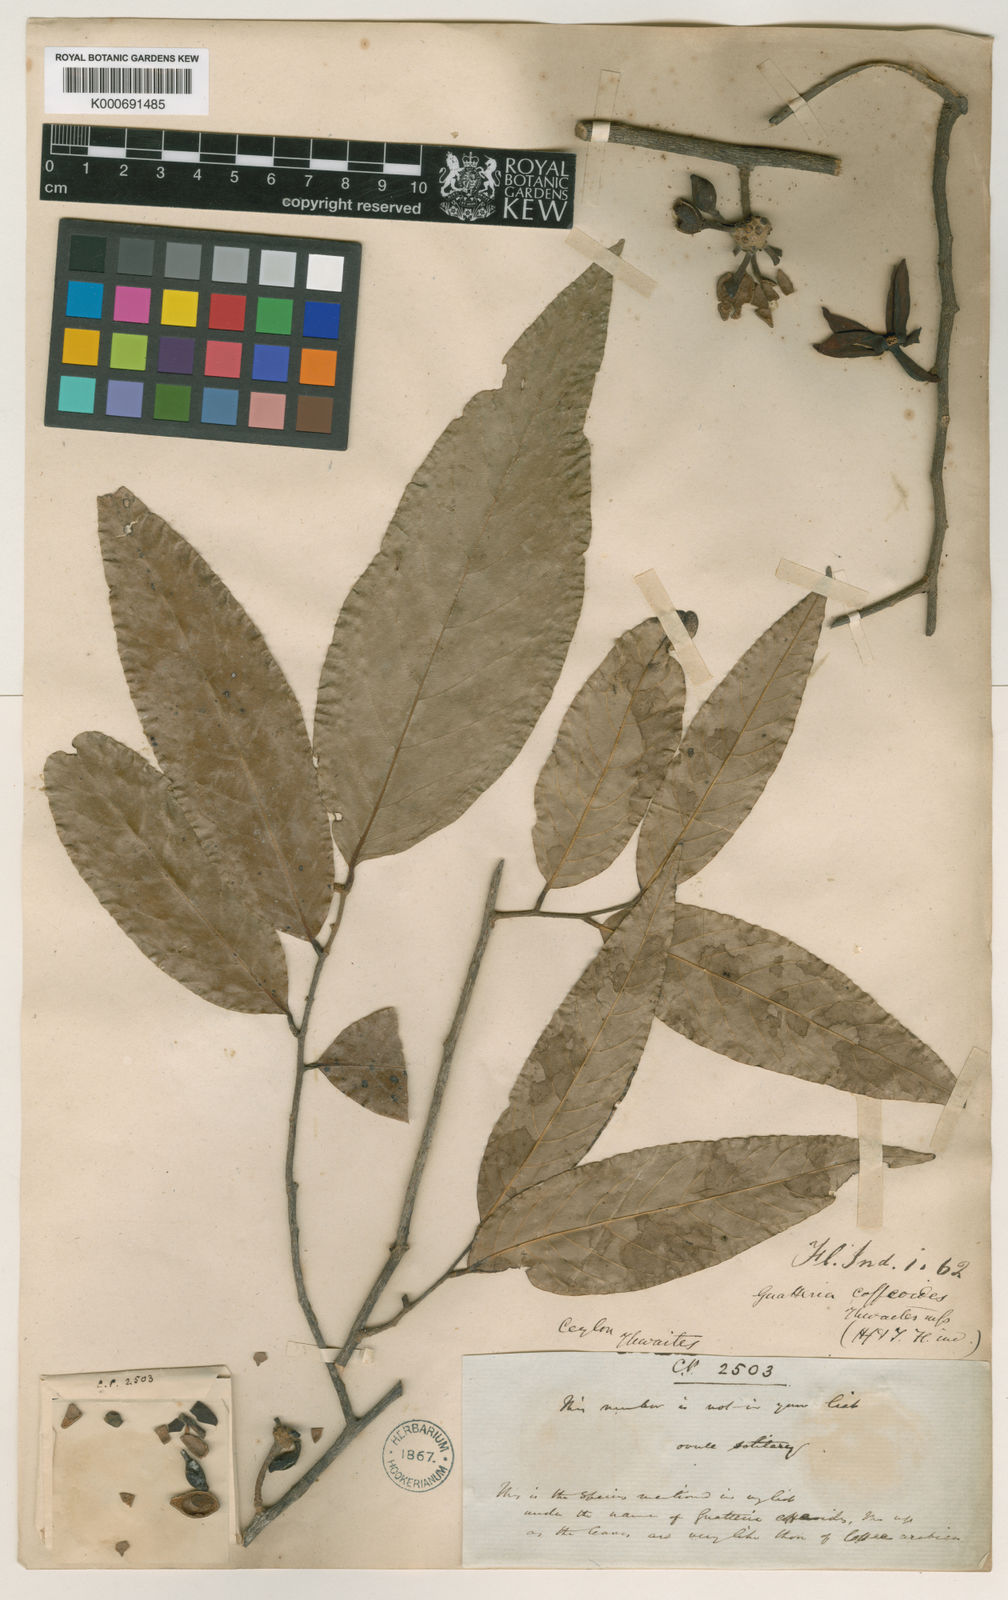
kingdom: Plantae
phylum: Tracheophyta
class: Magnoliopsida
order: Magnoliales
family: Annonaceae
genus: Monoon
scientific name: Monoon coffeoides
